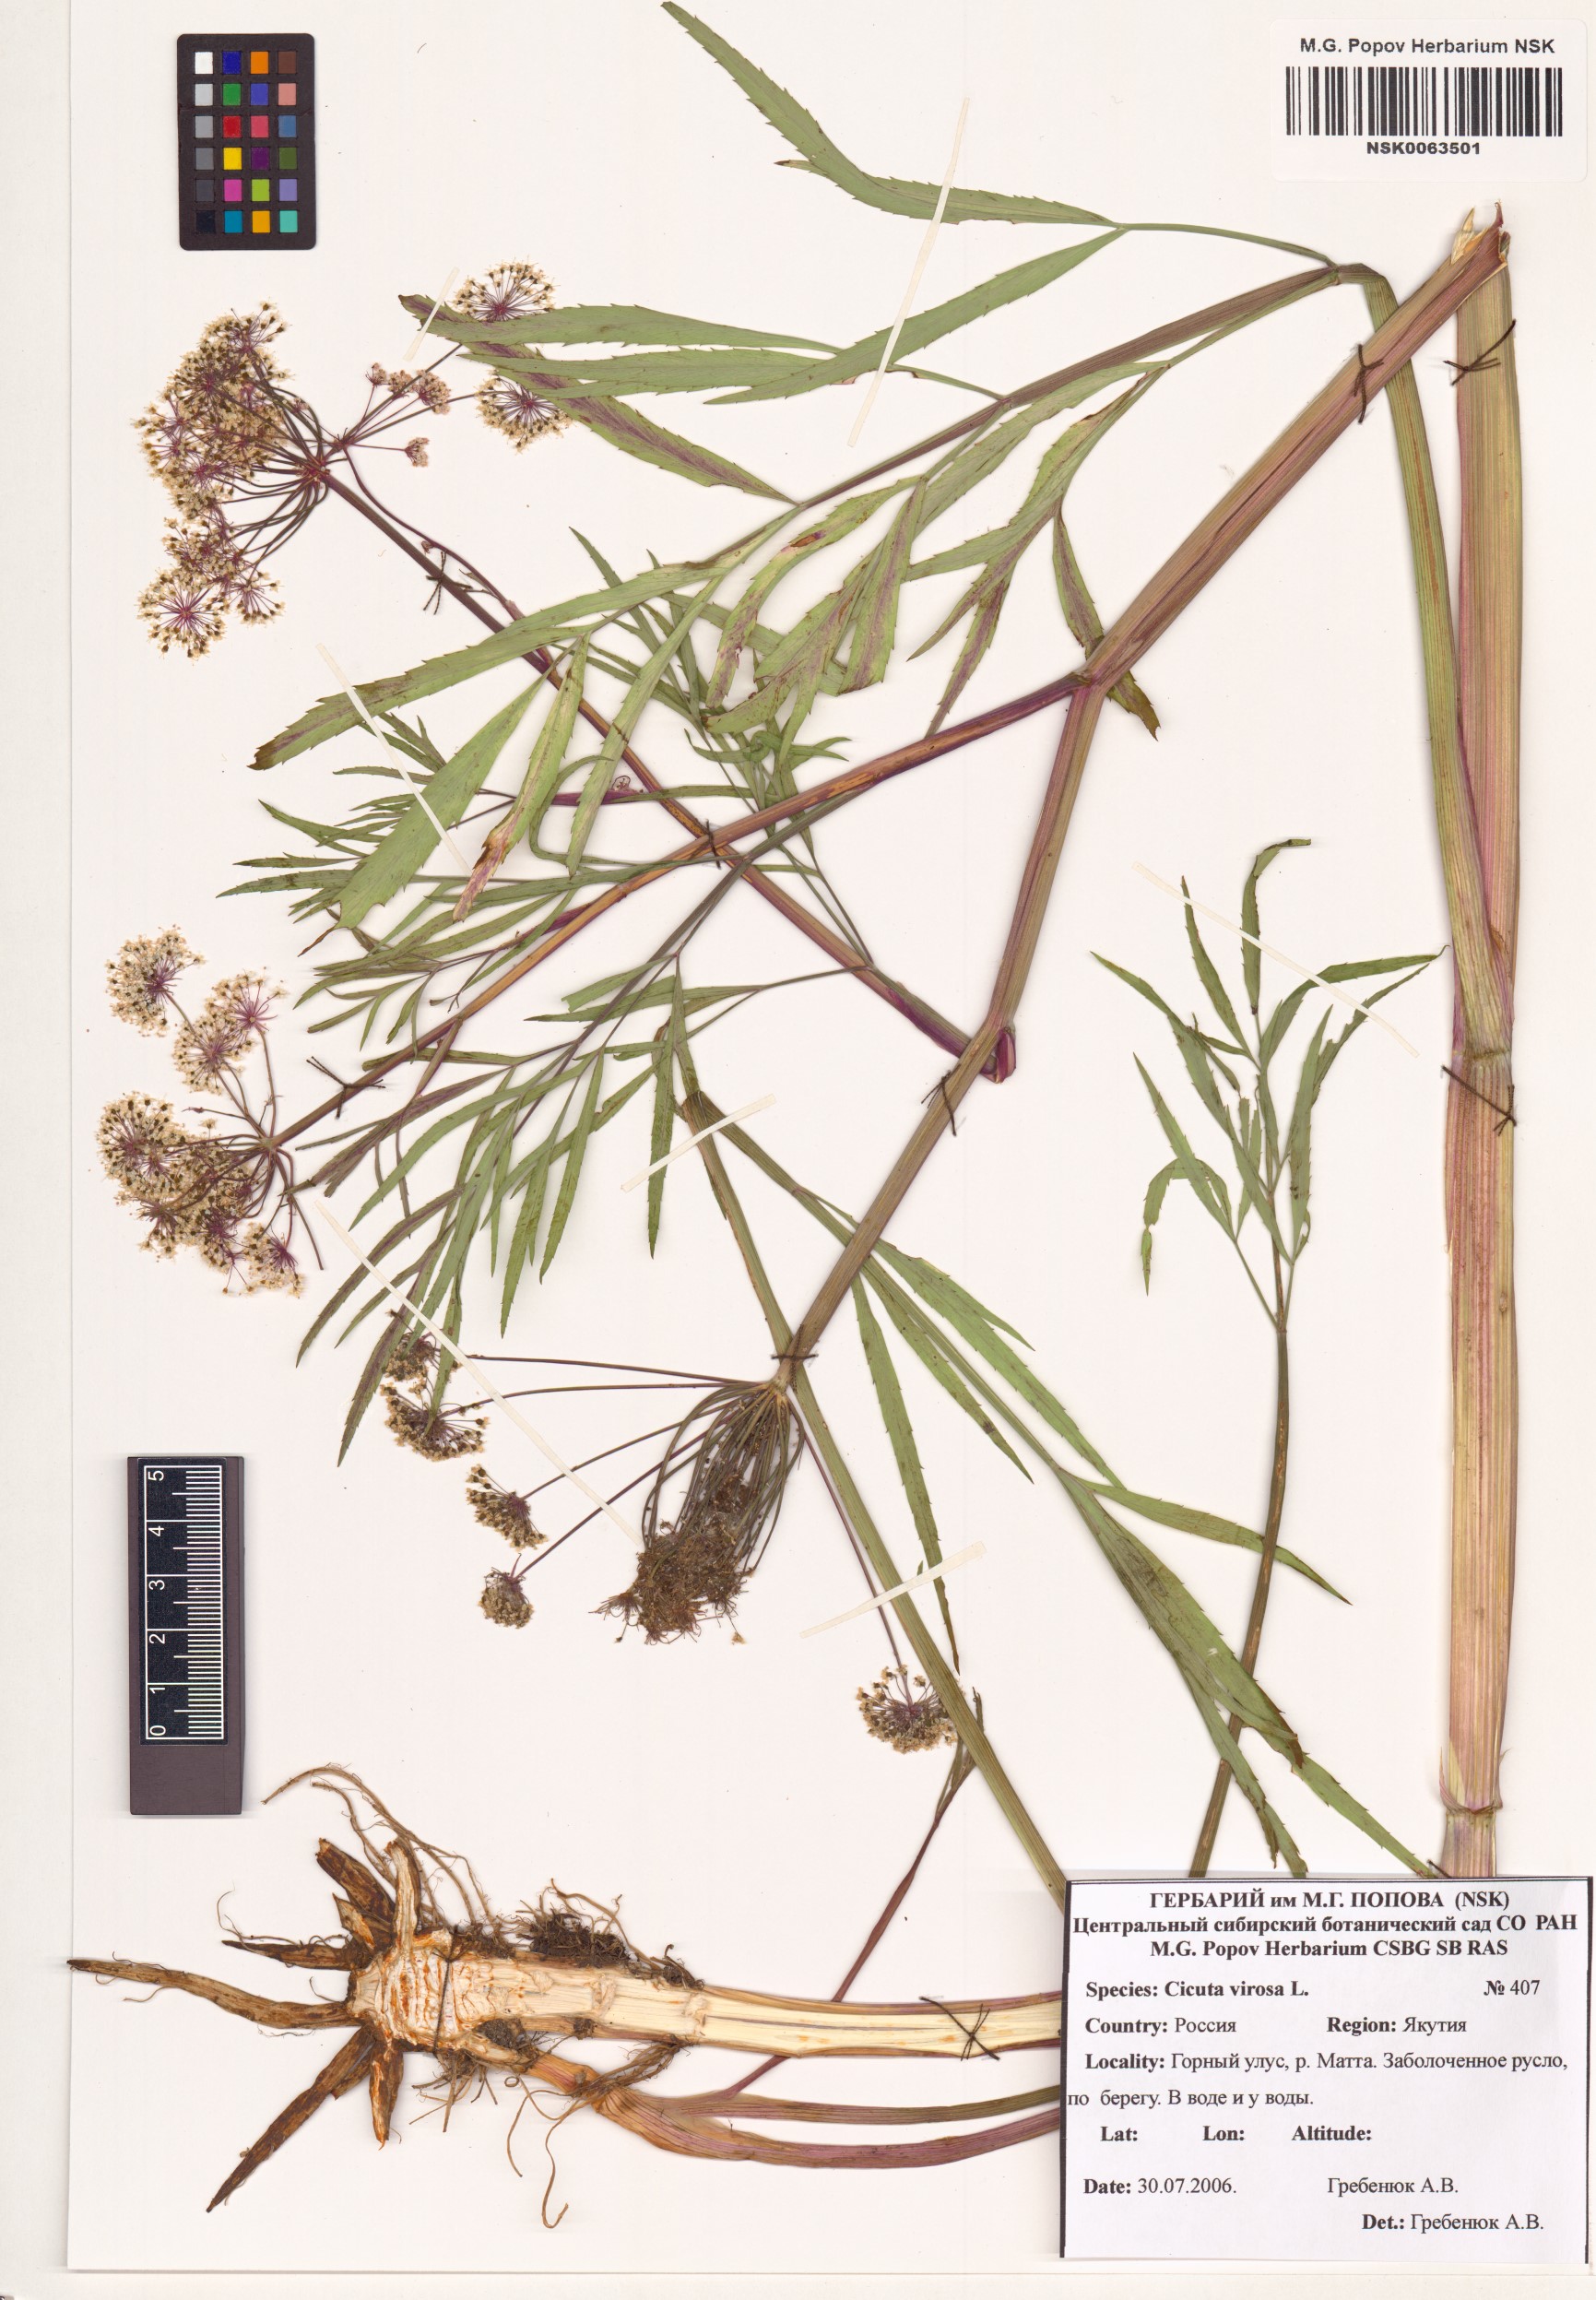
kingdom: Plantae
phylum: Tracheophyta
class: Magnoliopsida
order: Apiales
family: Apiaceae
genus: Cicuta
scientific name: Cicuta virosa
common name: Cowbane
